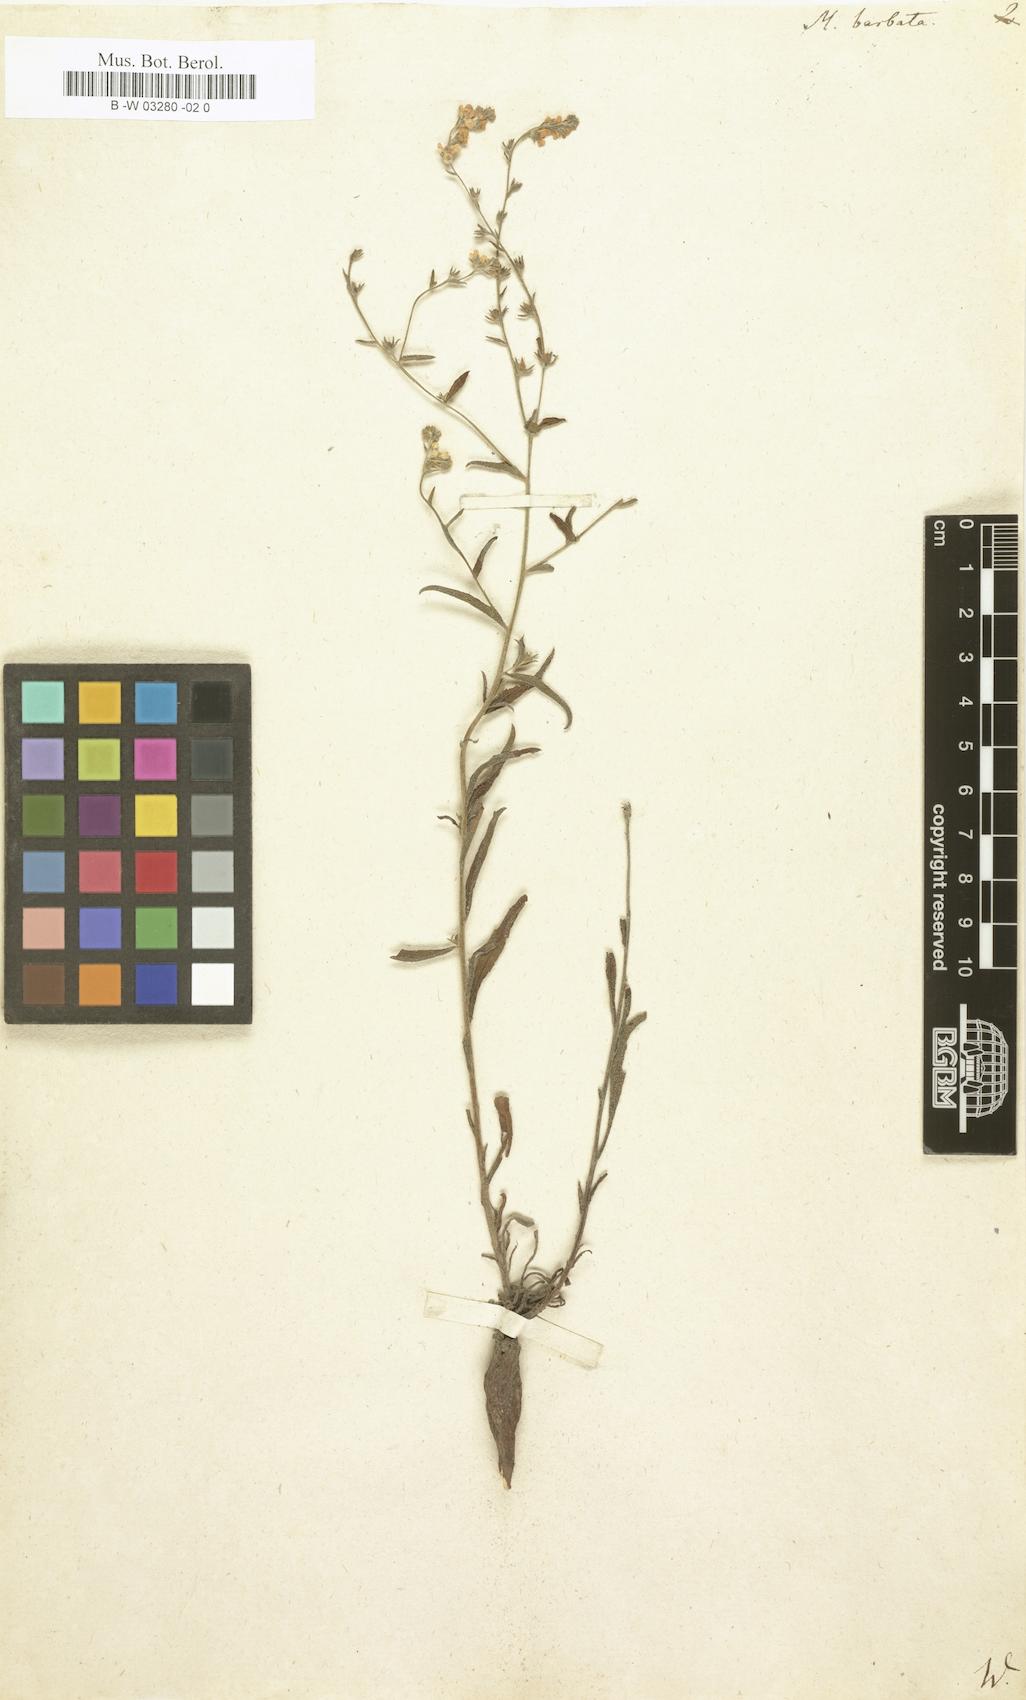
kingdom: Plantae
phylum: Tracheophyta
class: Magnoliopsida
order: Boraginales
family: Boraginaceae
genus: Lappula
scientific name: Lappula barbata
